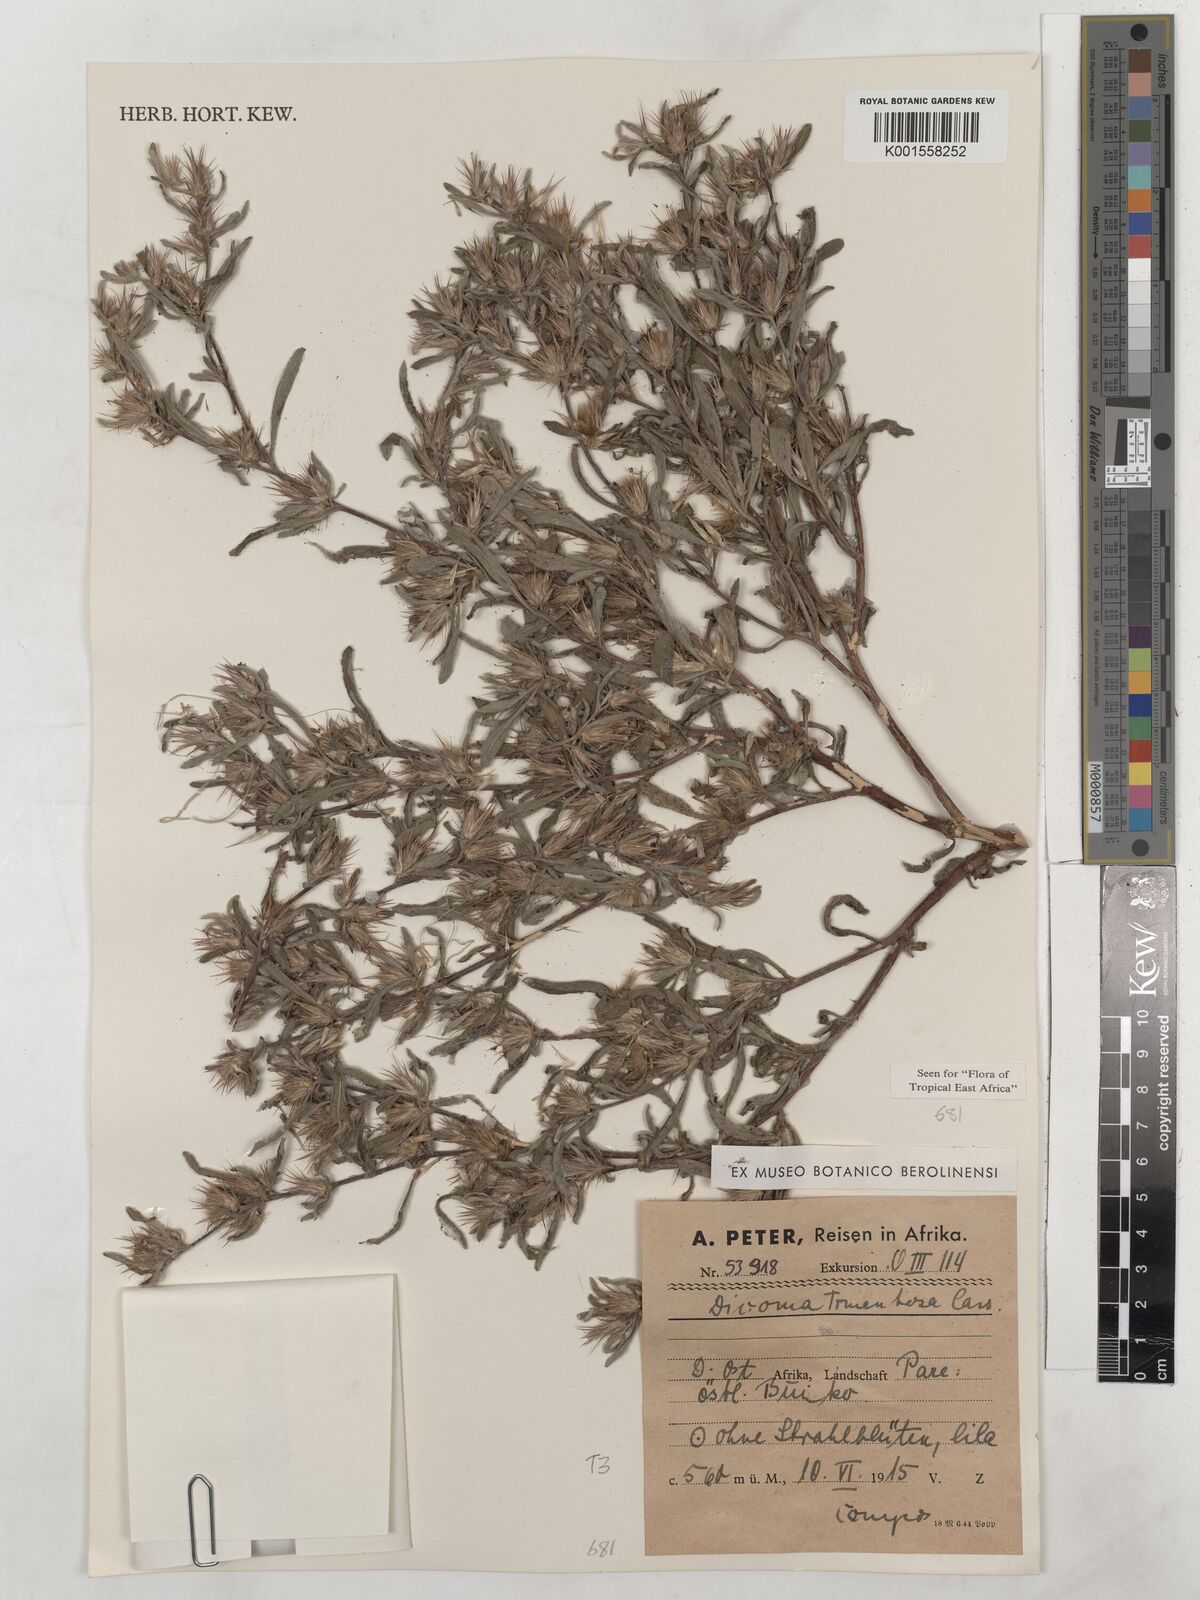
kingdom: Plantae
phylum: Tracheophyta
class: Magnoliopsida
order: Asterales
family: Asteraceae
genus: Dicoma
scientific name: Dicoma tomentosa
